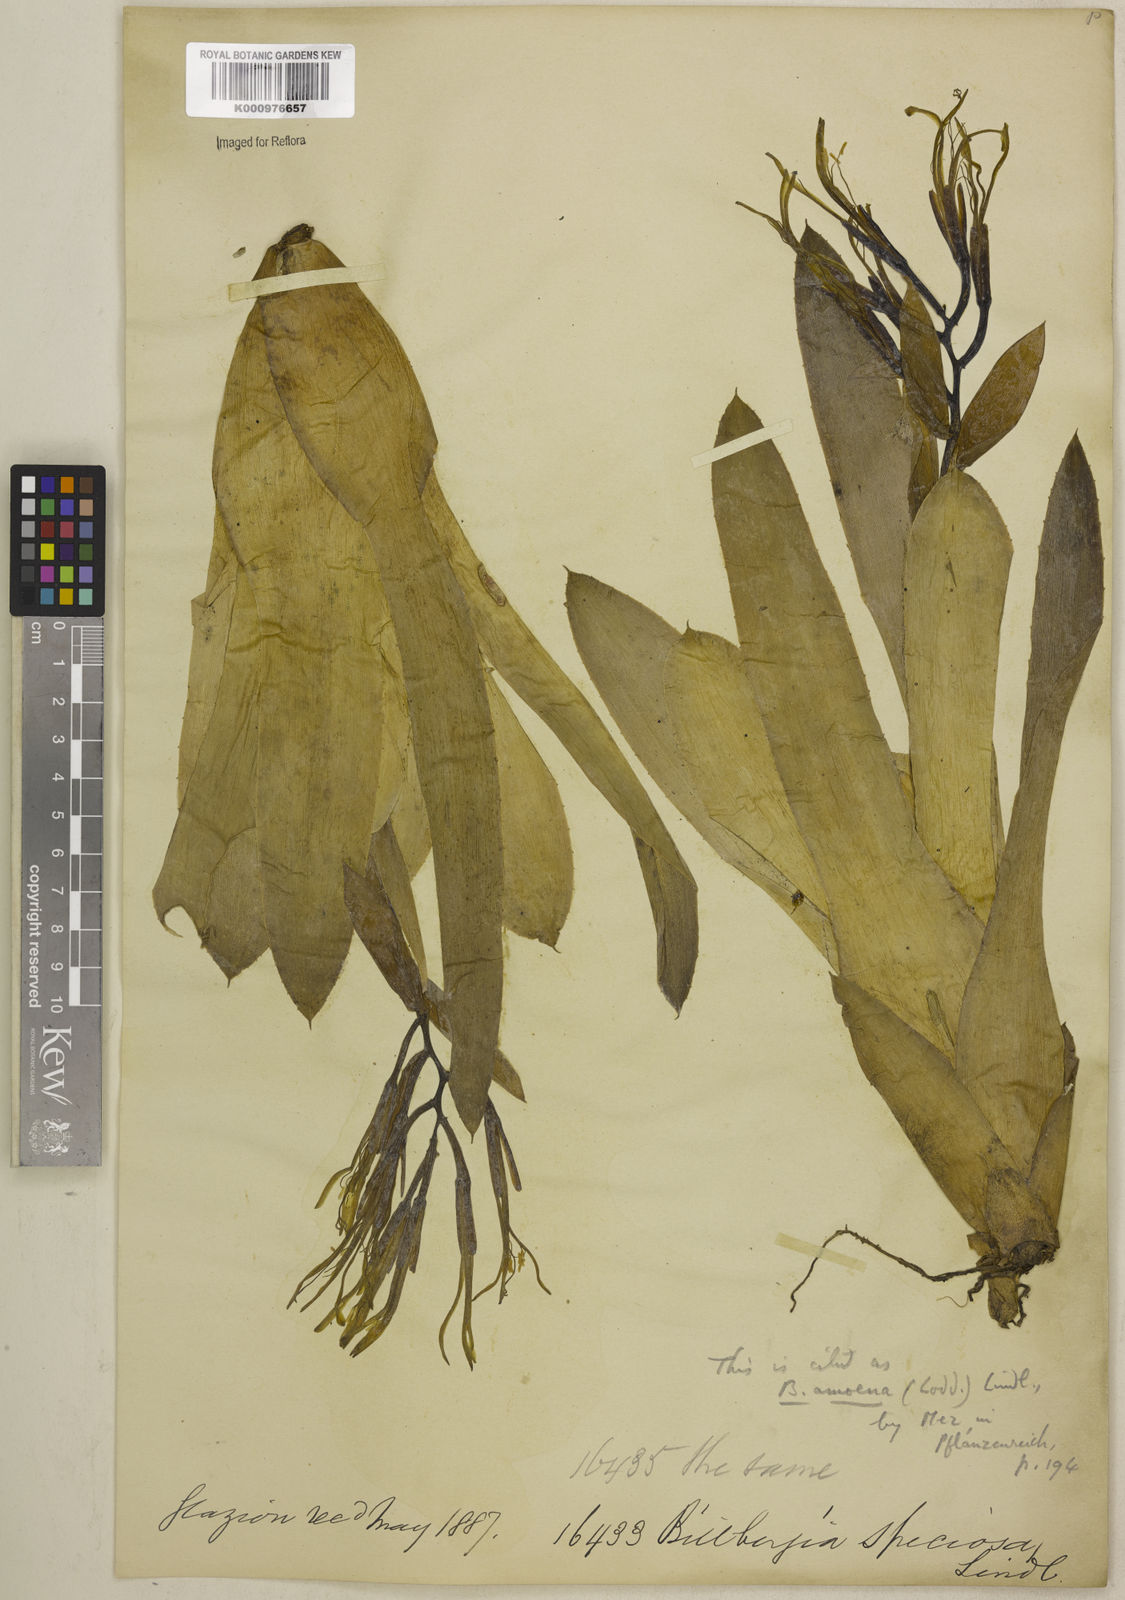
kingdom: Plantae
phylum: Tracheophyta
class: Liliopsida
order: Poales
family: Bromeliaceae
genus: Billbergia
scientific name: Billbergia amoena
